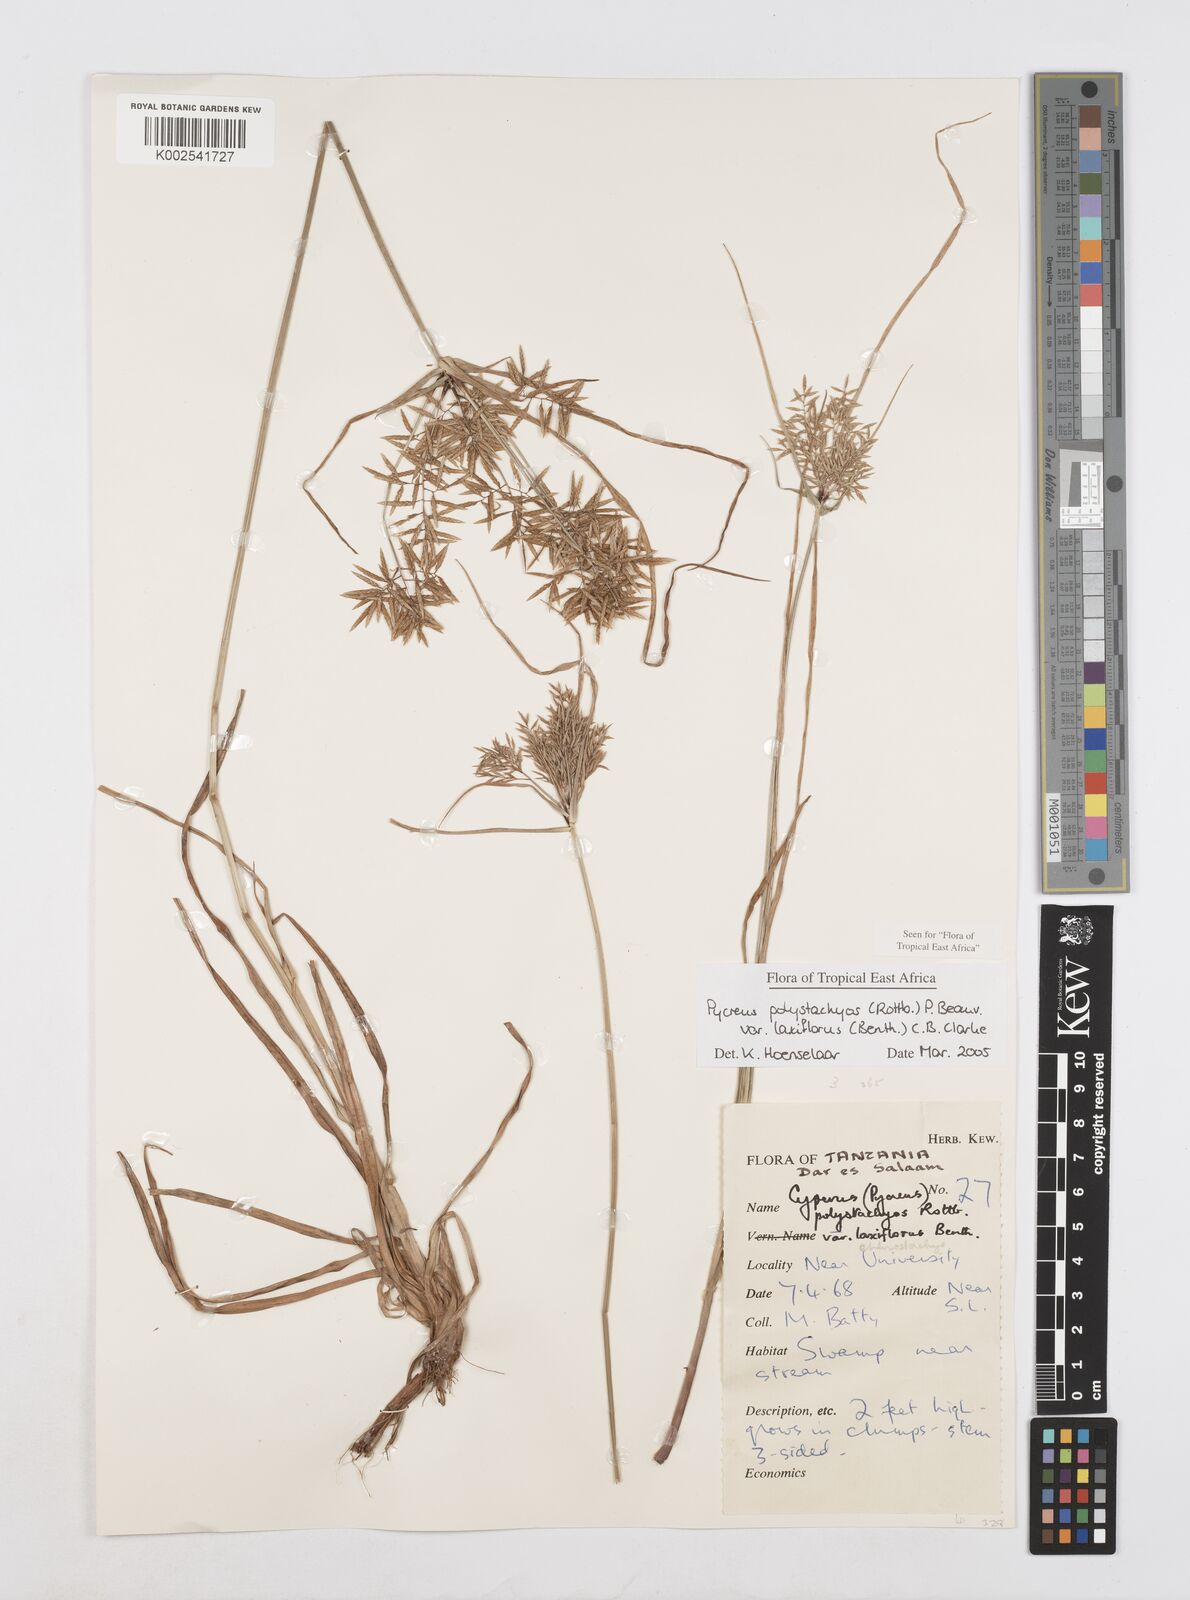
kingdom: Plantae
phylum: Tracheophyta
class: Liliopsida
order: Poales
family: Cyperaceae
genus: Cyperus
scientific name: Cyperus polystachyos
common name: Bunchy flat sedge
